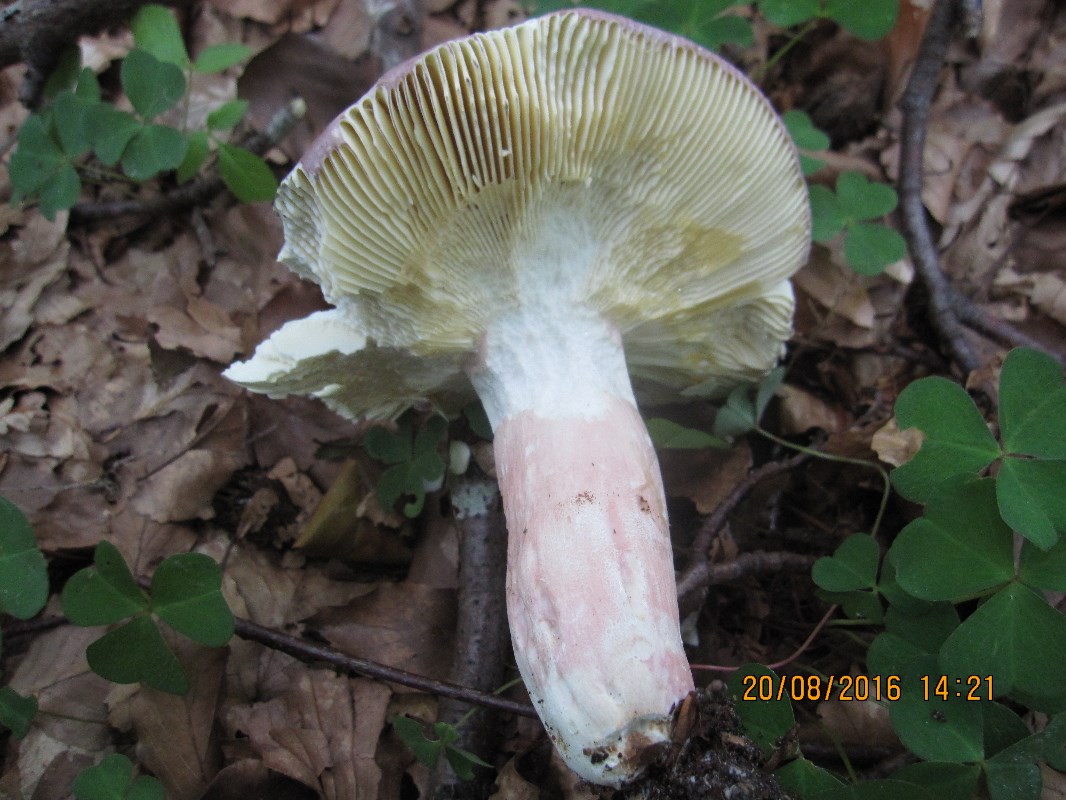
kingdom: Fungi
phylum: Basidiomycota
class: Agaricomycetes
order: Russulales
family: Russulaceae
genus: Russula
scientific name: Russula olivacea
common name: stor skørhat
